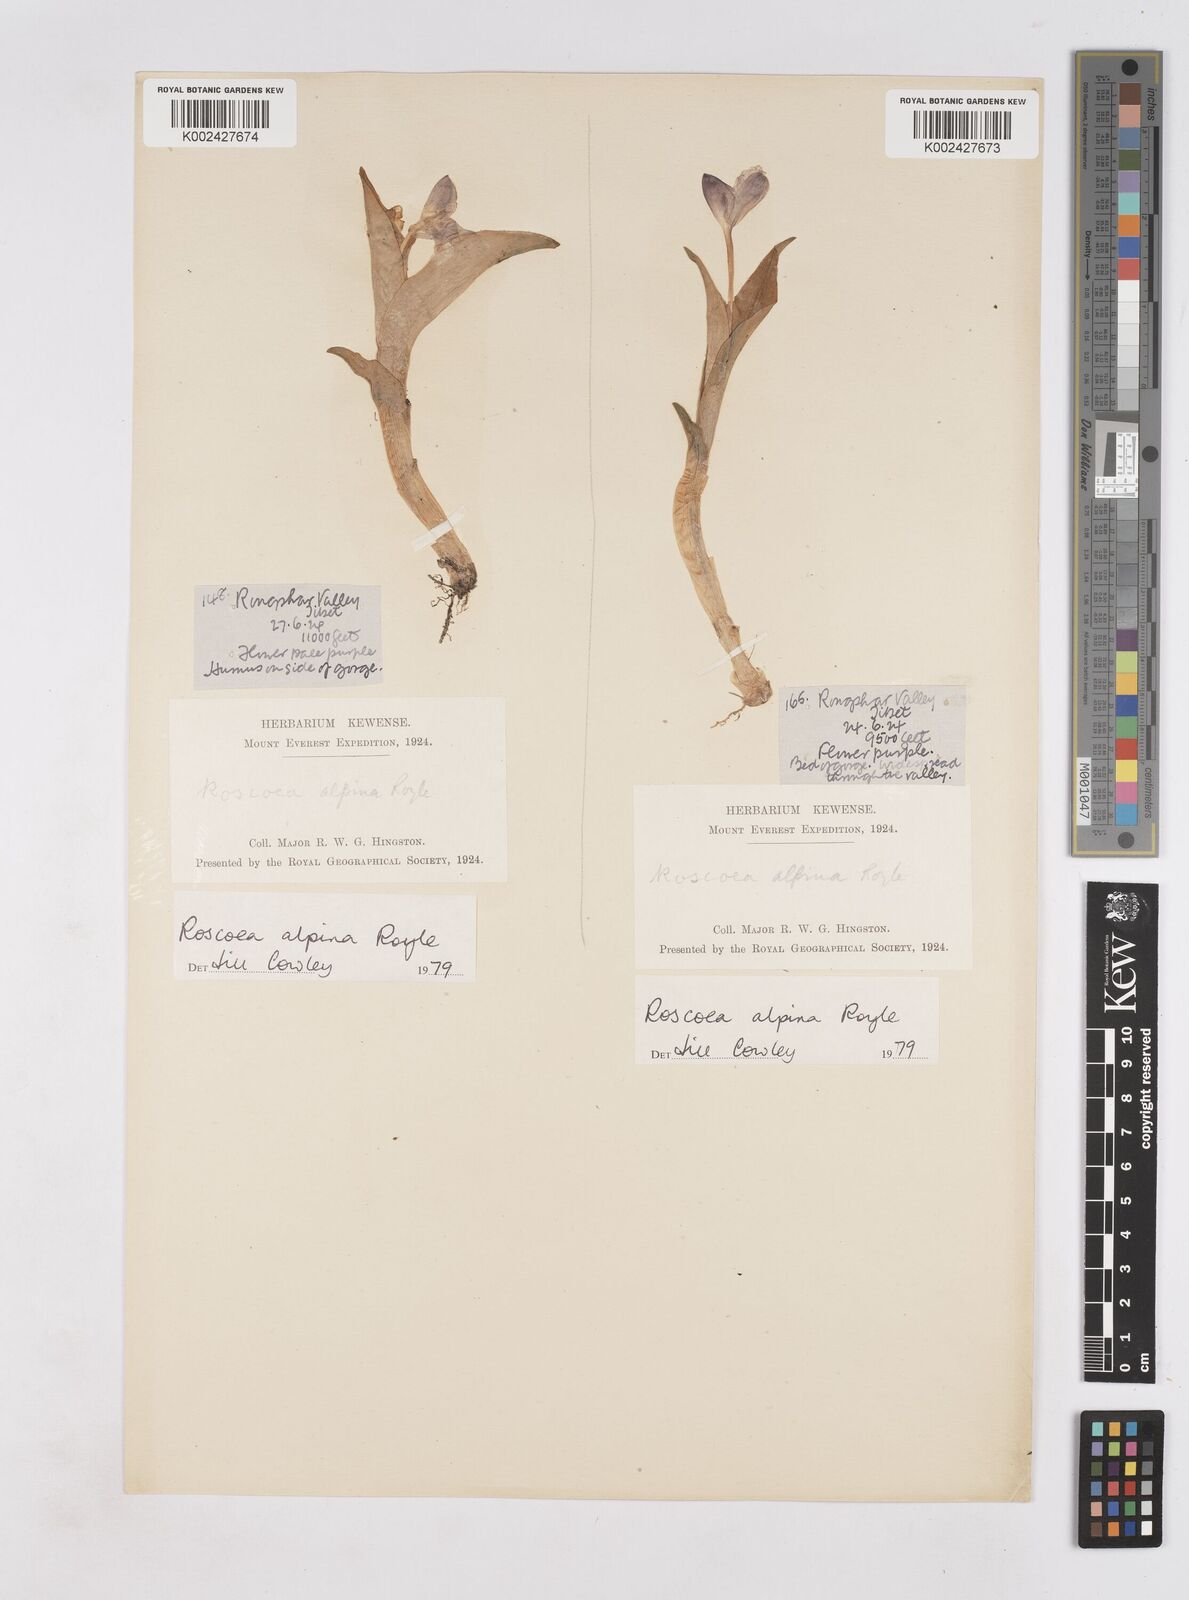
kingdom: Plantae
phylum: Tracheophyta
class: Liliopsida
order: Zingiberales
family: Zingiberaceae
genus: Roscoea
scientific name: Roscoea alpina
